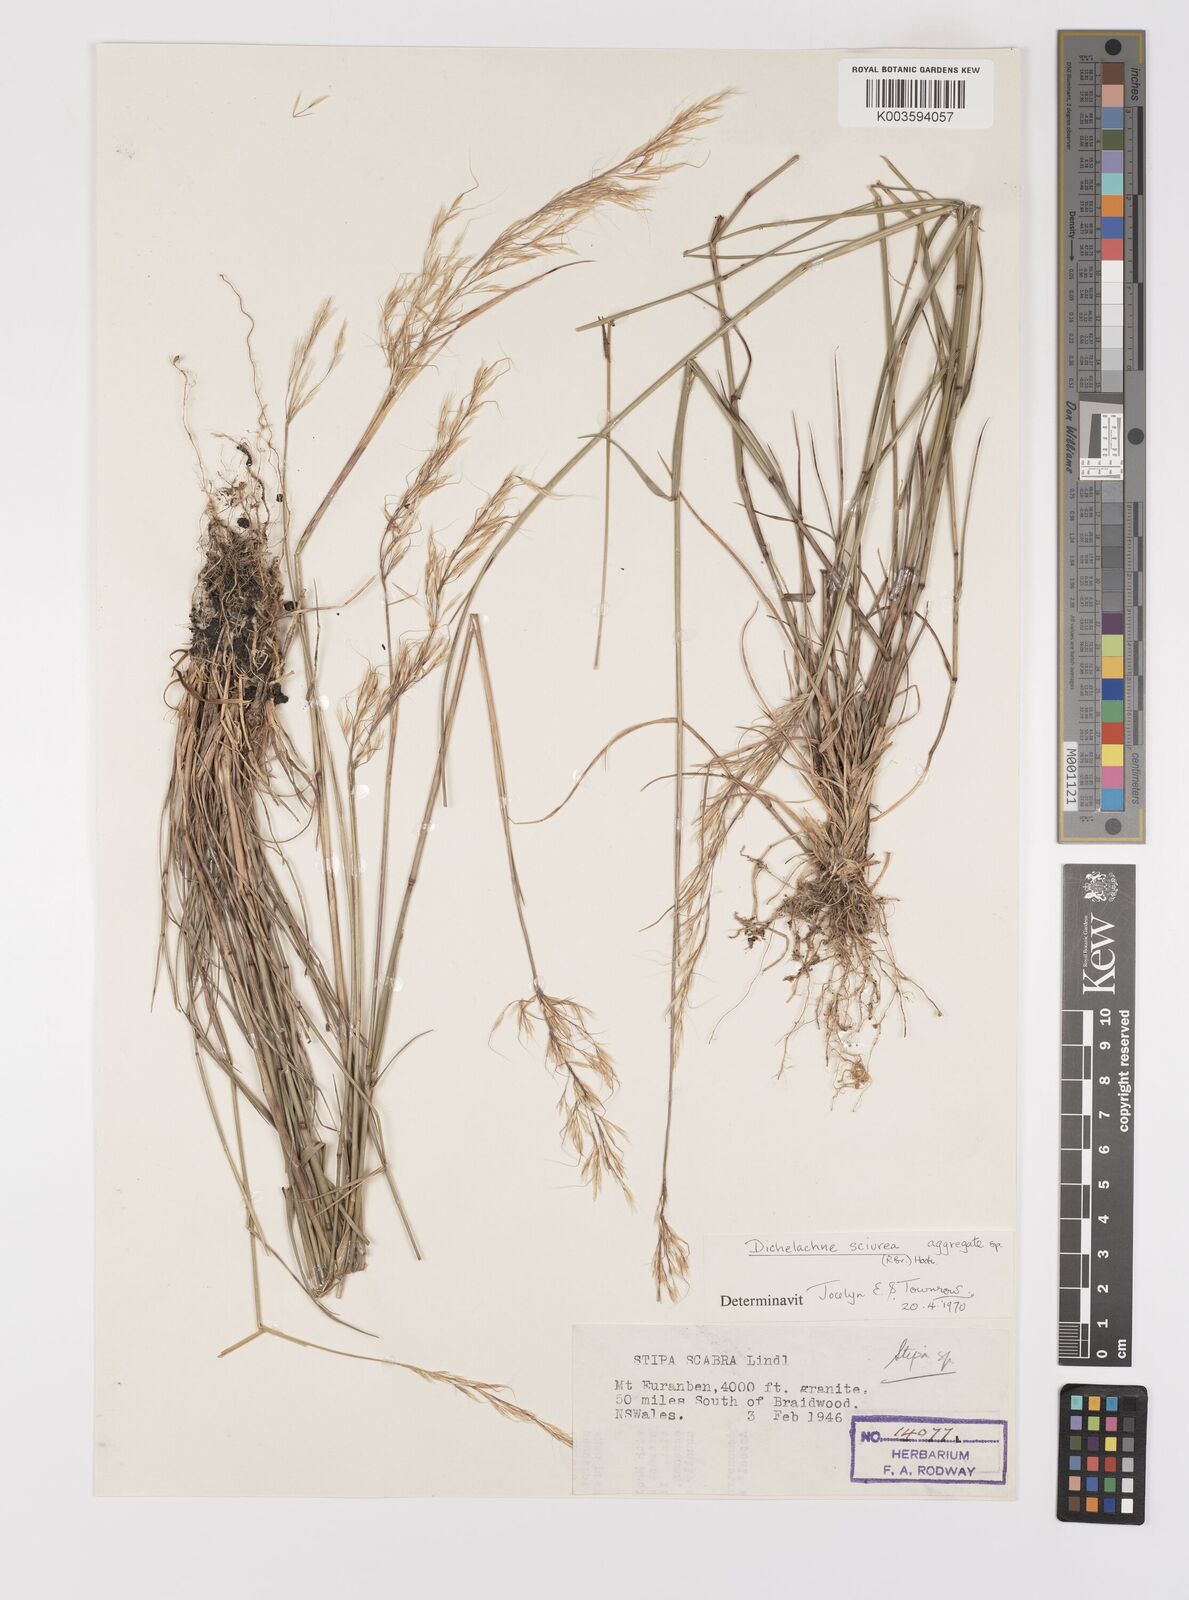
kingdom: Plantae
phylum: Tracheophyta
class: Liliopsida
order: Poales
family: Poaceae
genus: Dichelachne
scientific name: Dichelachne rara
